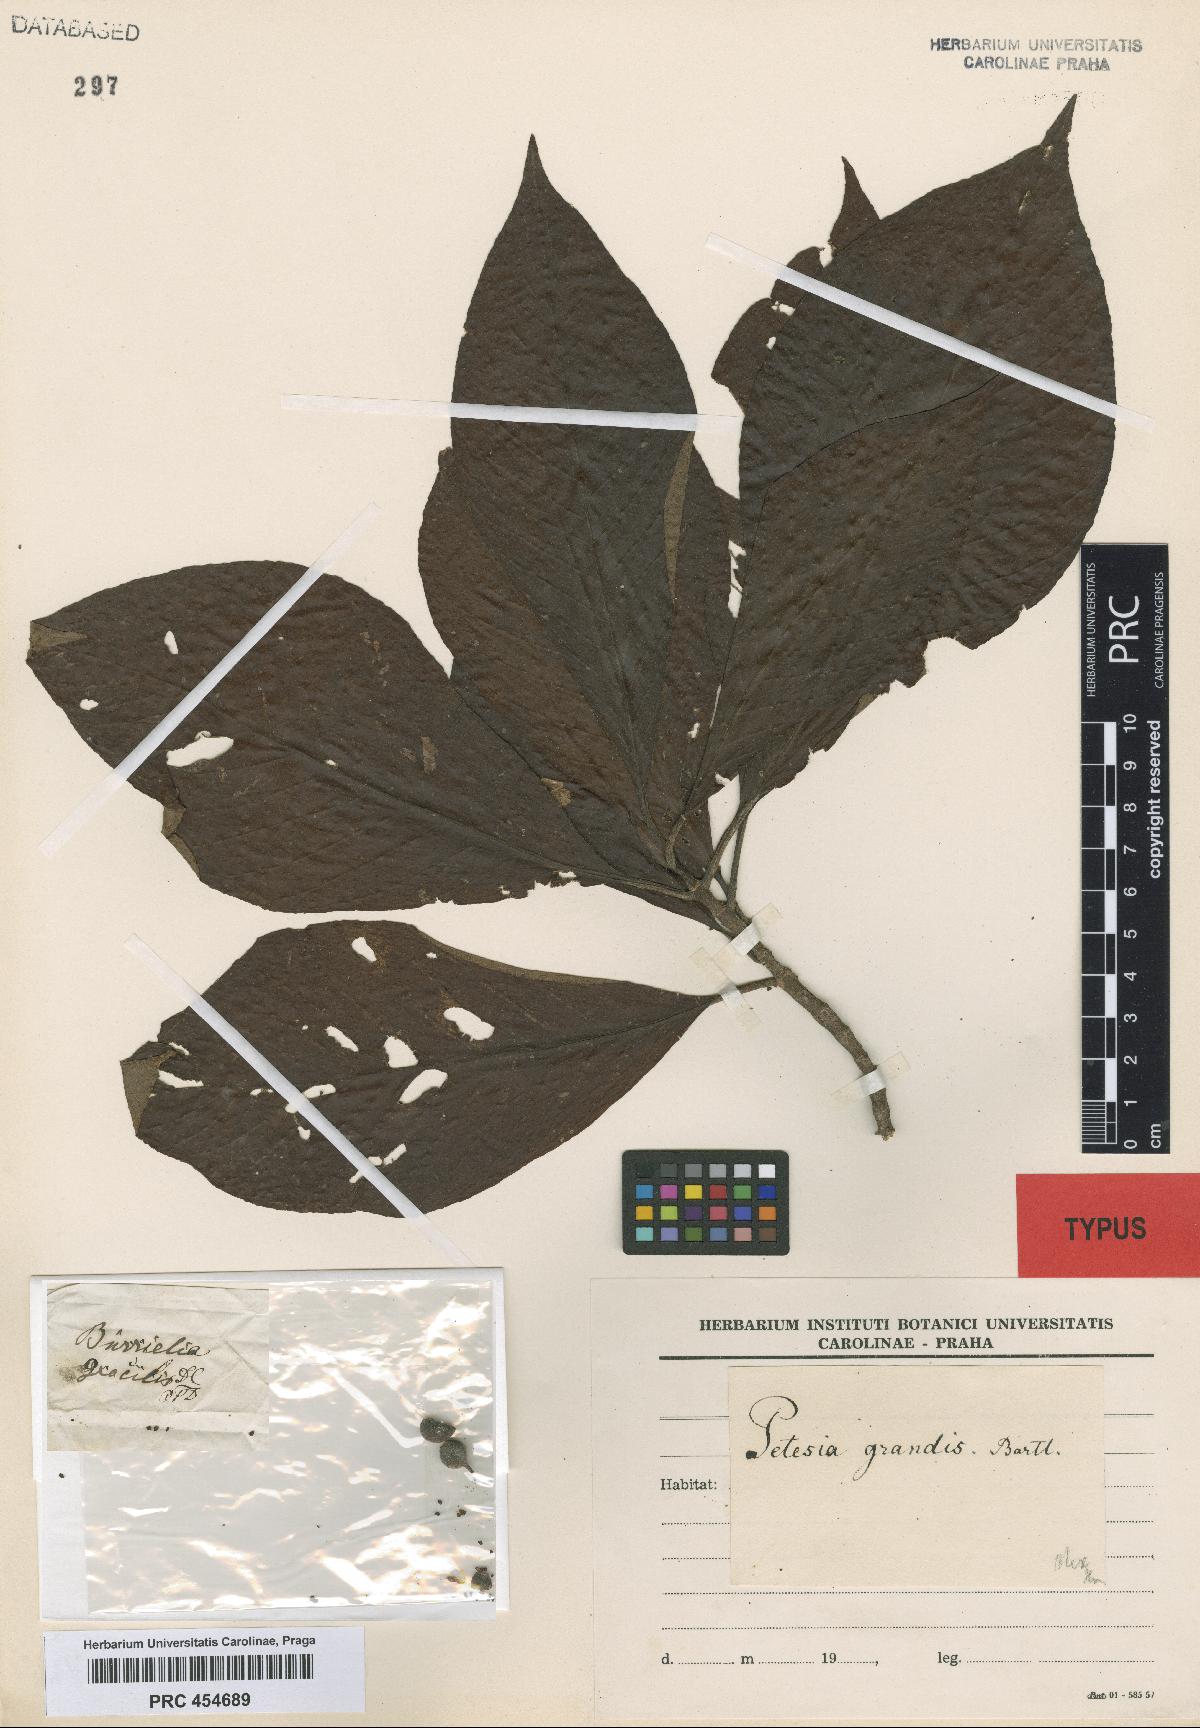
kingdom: Plantae
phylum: Tracheophyta
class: Magnoliopsida
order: Gentianales
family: Rubiaceae
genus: Sommera
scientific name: Sommera grandis
